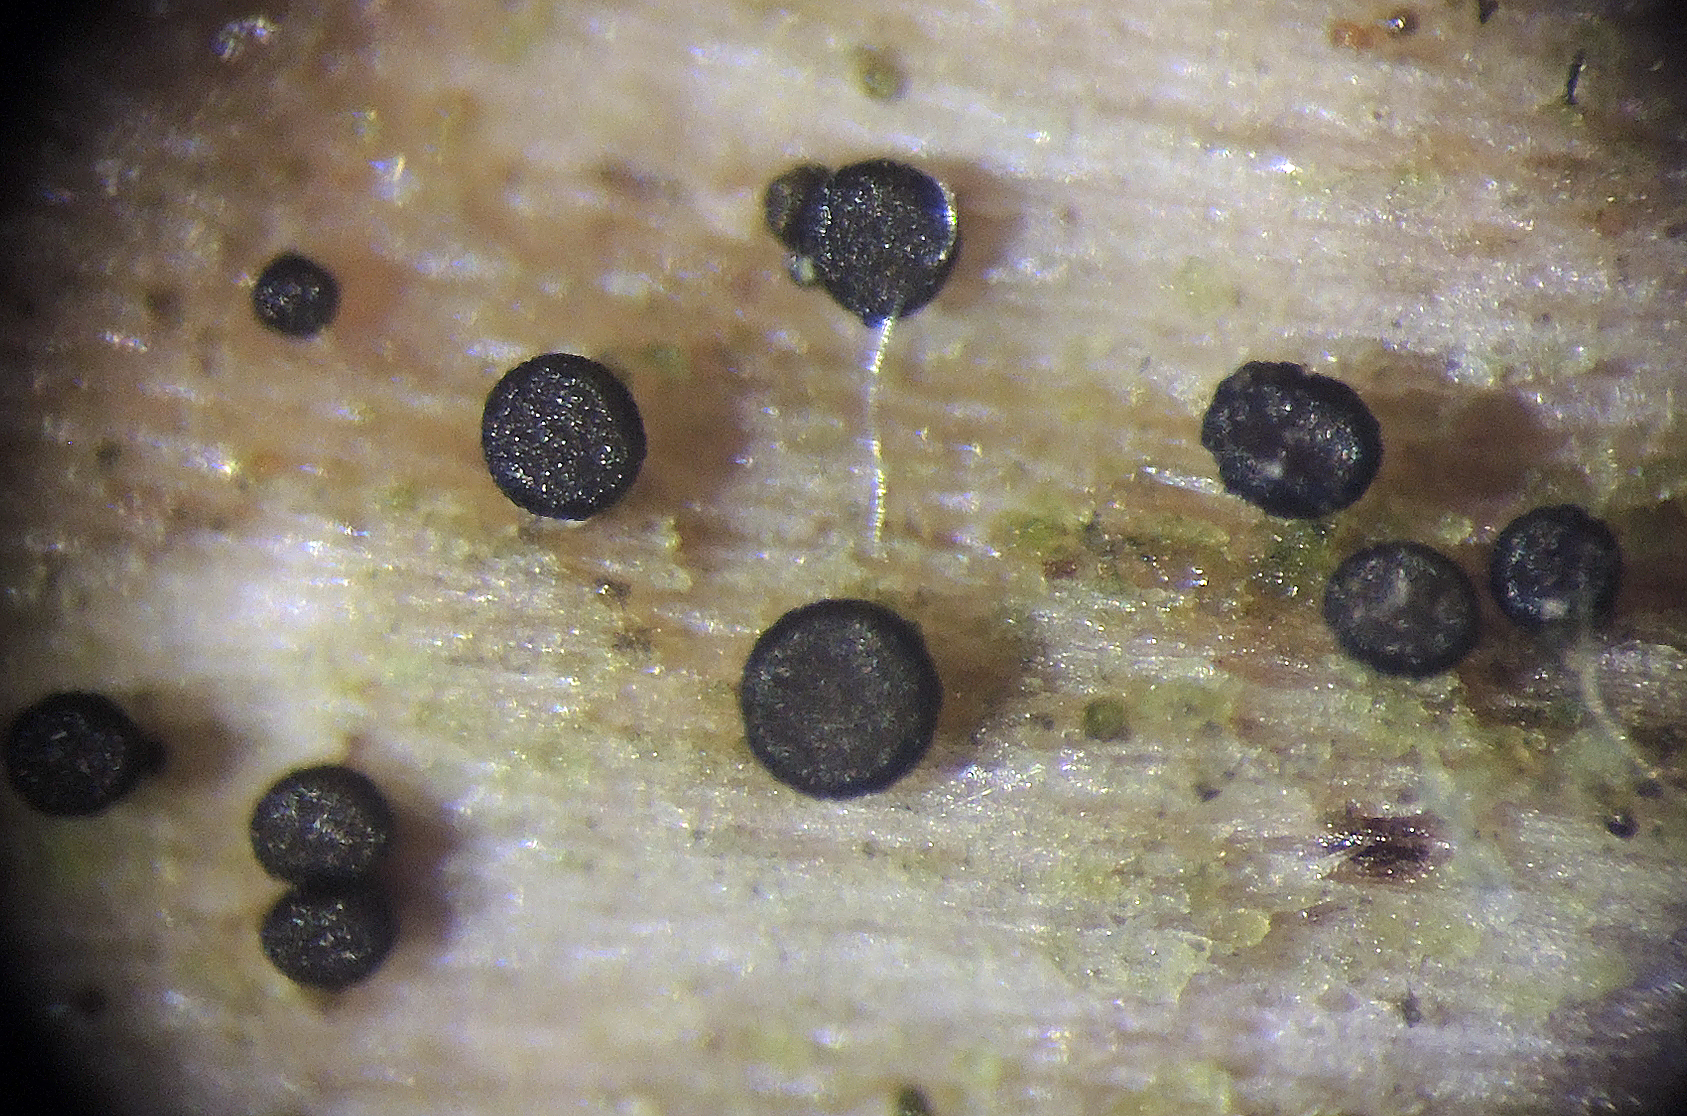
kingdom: Fungi
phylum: Ascomycota
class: Leotiomycetes
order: Helotiales
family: Helotiaceae
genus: Durella
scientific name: Durella connivens
